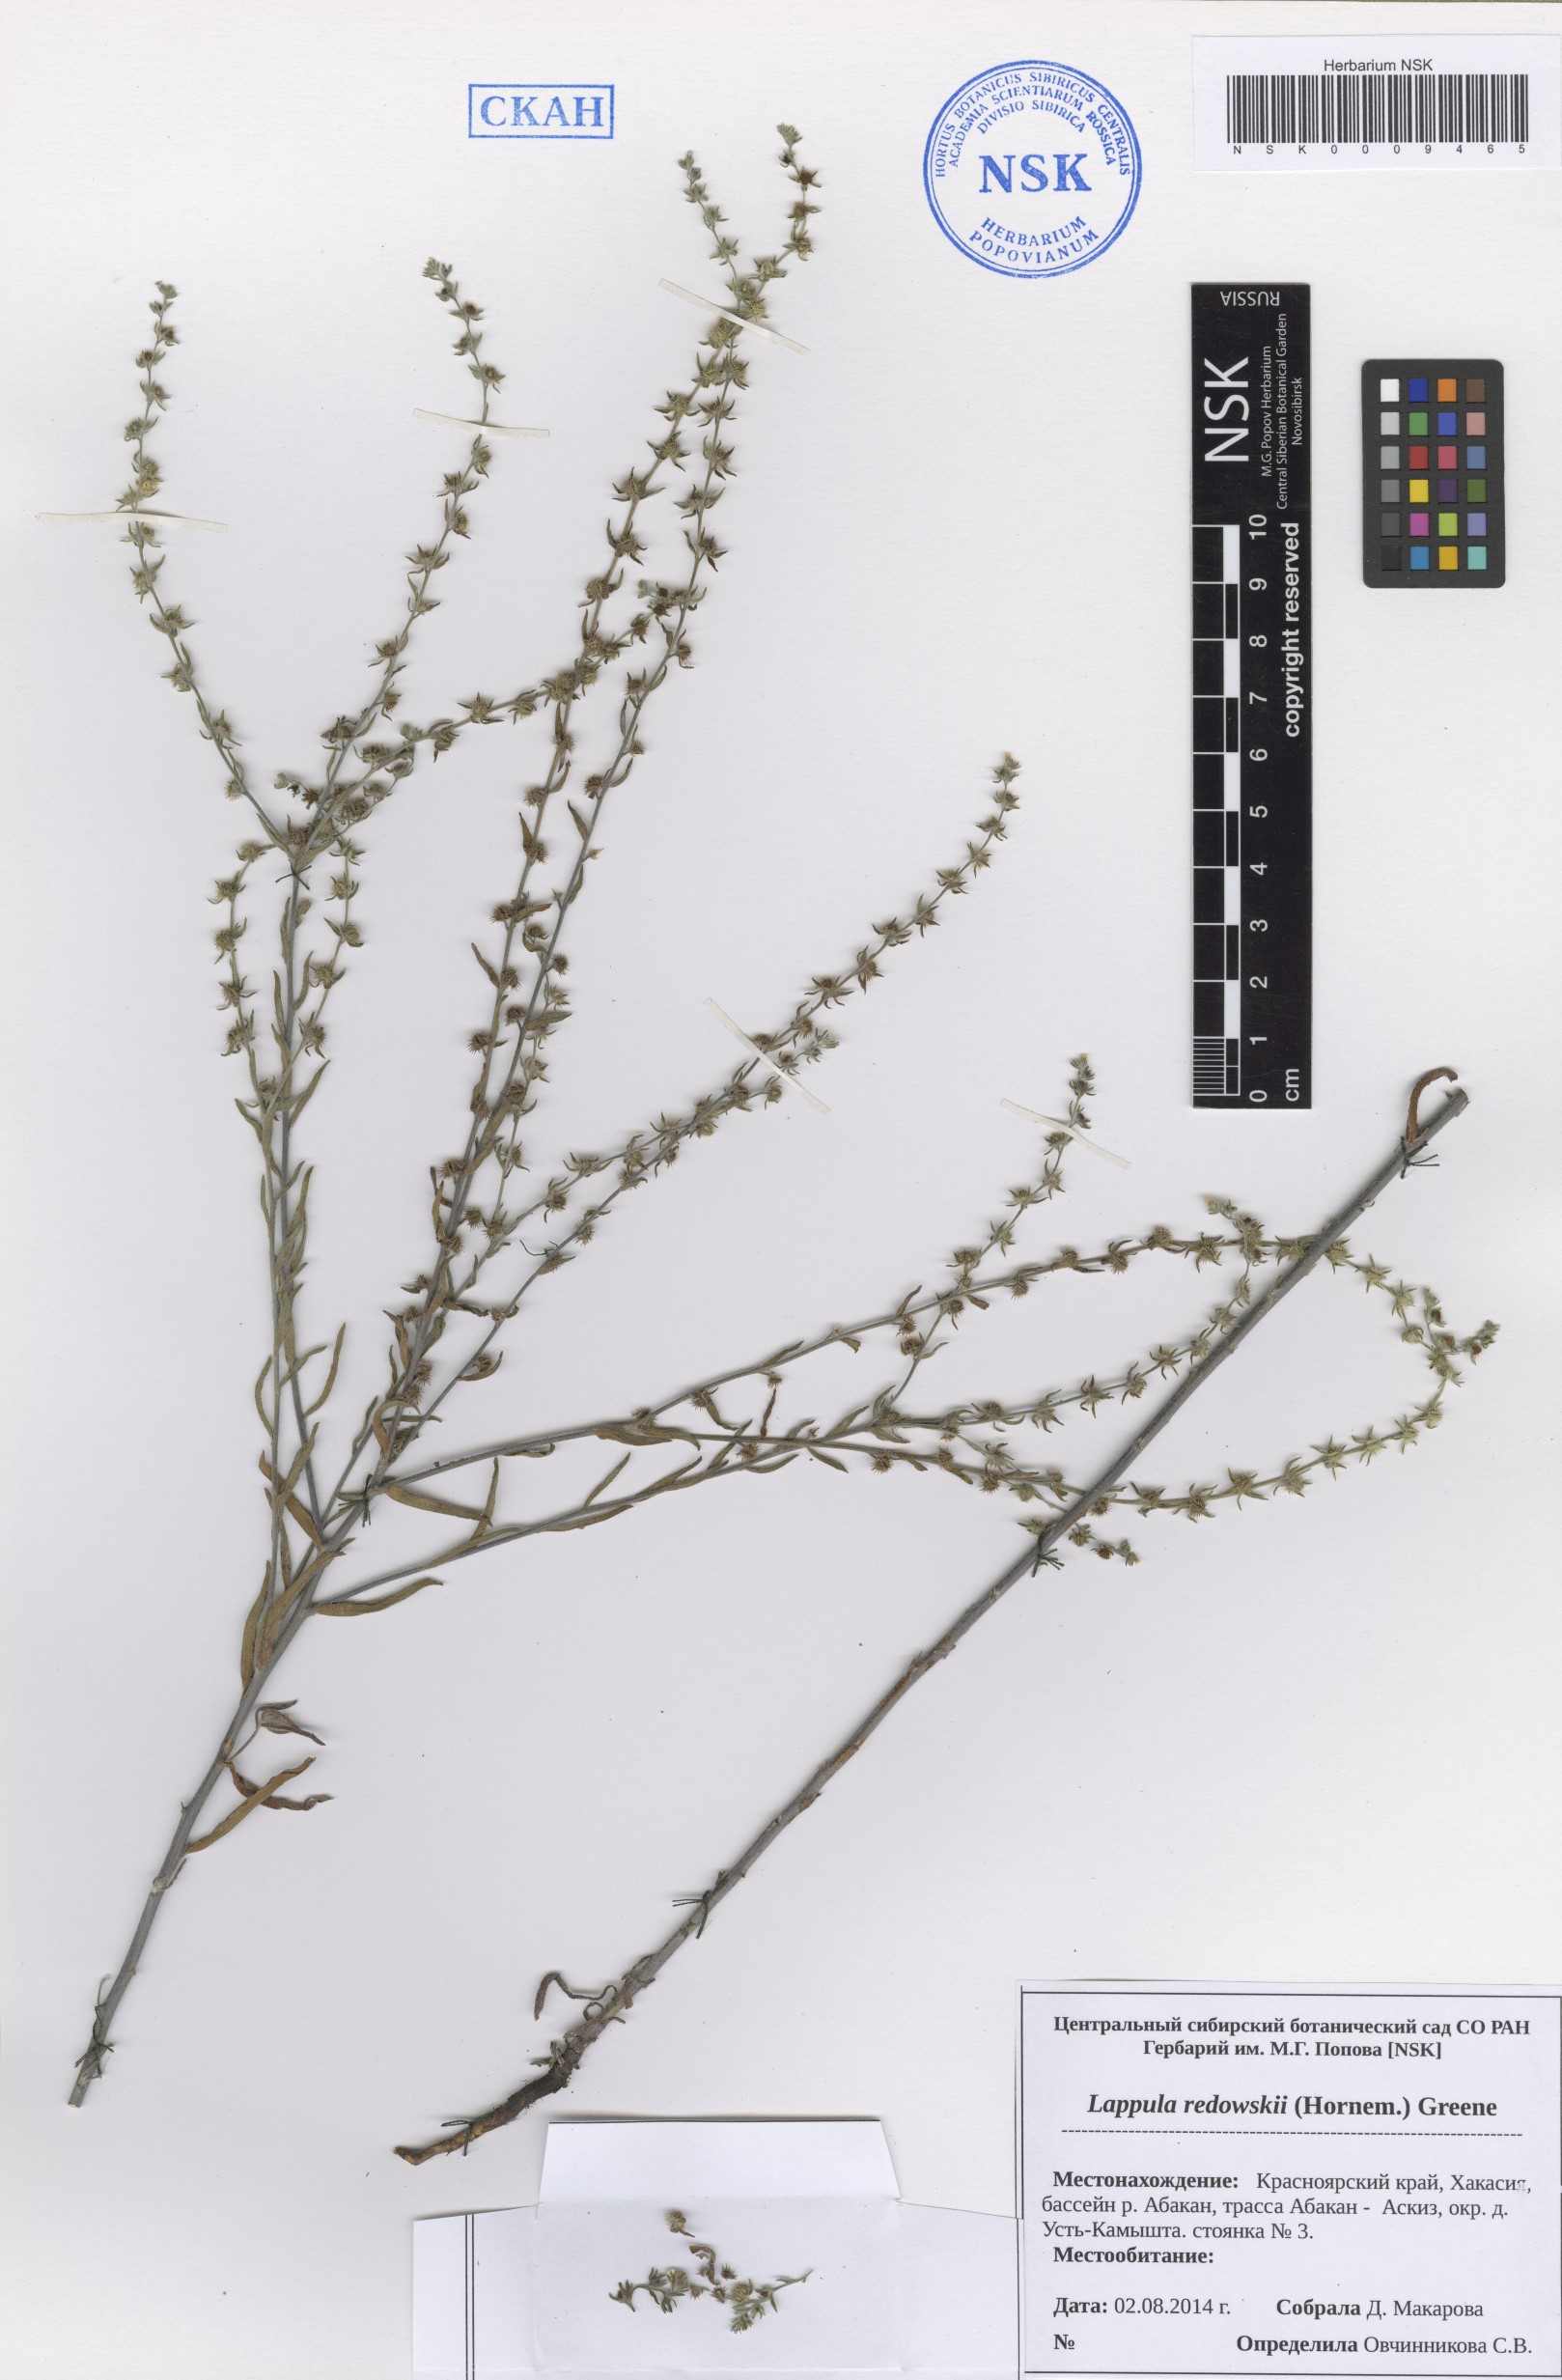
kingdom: Plantae
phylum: Tracheophyta
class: Magnoliopsida
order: Boraginales
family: Boraginaceae
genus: Lappula
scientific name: Lappula redowskii
